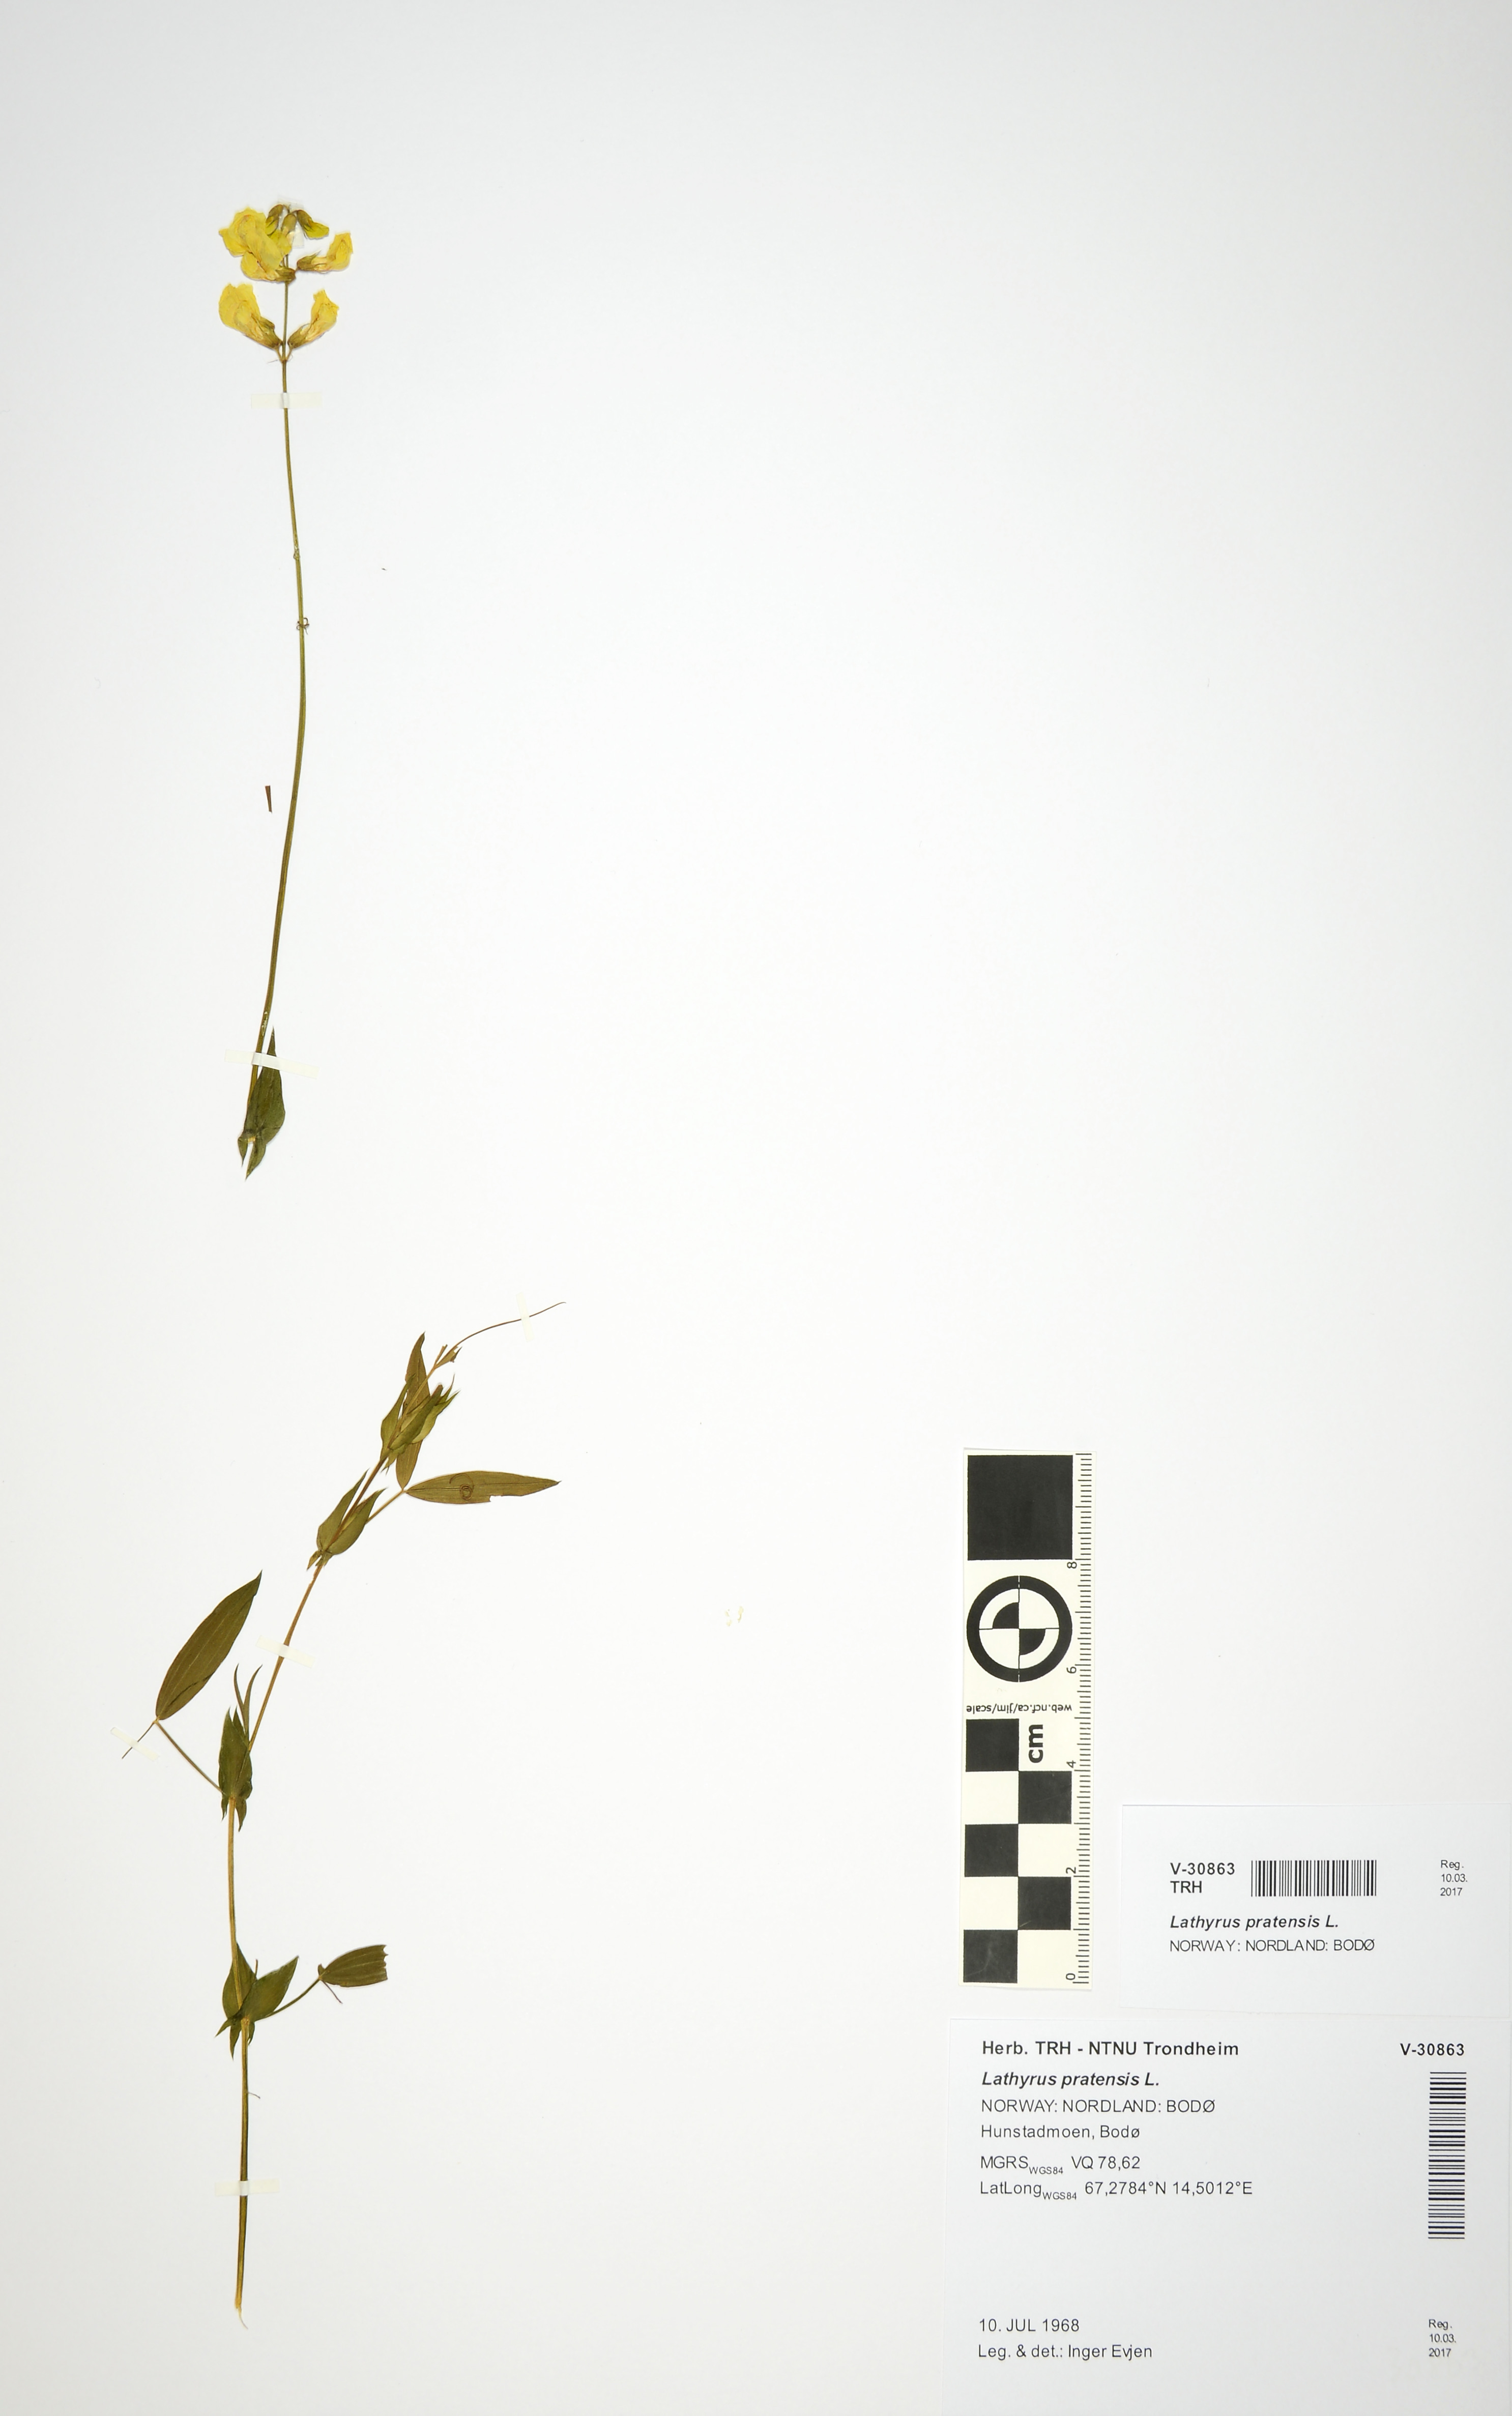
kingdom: Plantae
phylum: Tracheophyta
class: Magnoliopsida
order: Fabales
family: Fabaceae
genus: Lathyrus
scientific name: Lathyrus pratensis
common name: Meadow vetchling
